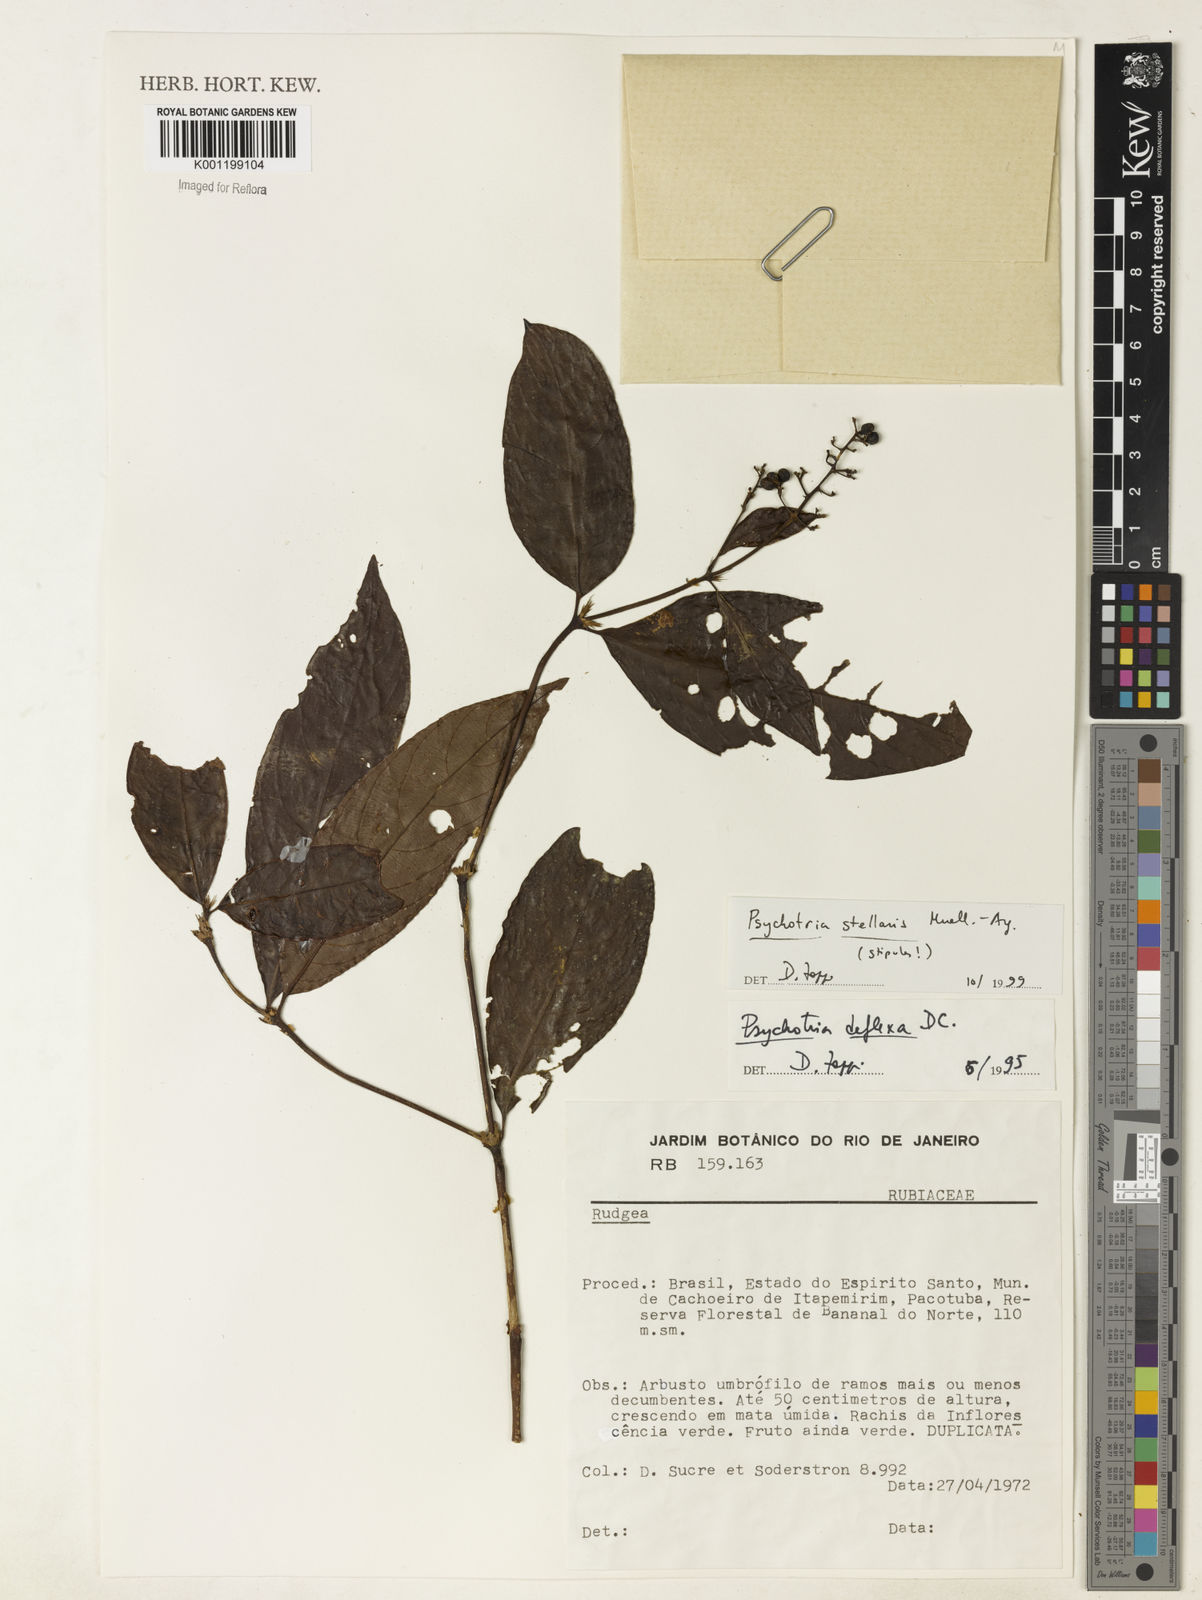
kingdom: Plantae
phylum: Tracheophyta
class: Magnoliopsida
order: Gentianales
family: Rubiaceae
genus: Psychotria
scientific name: Psychotria
